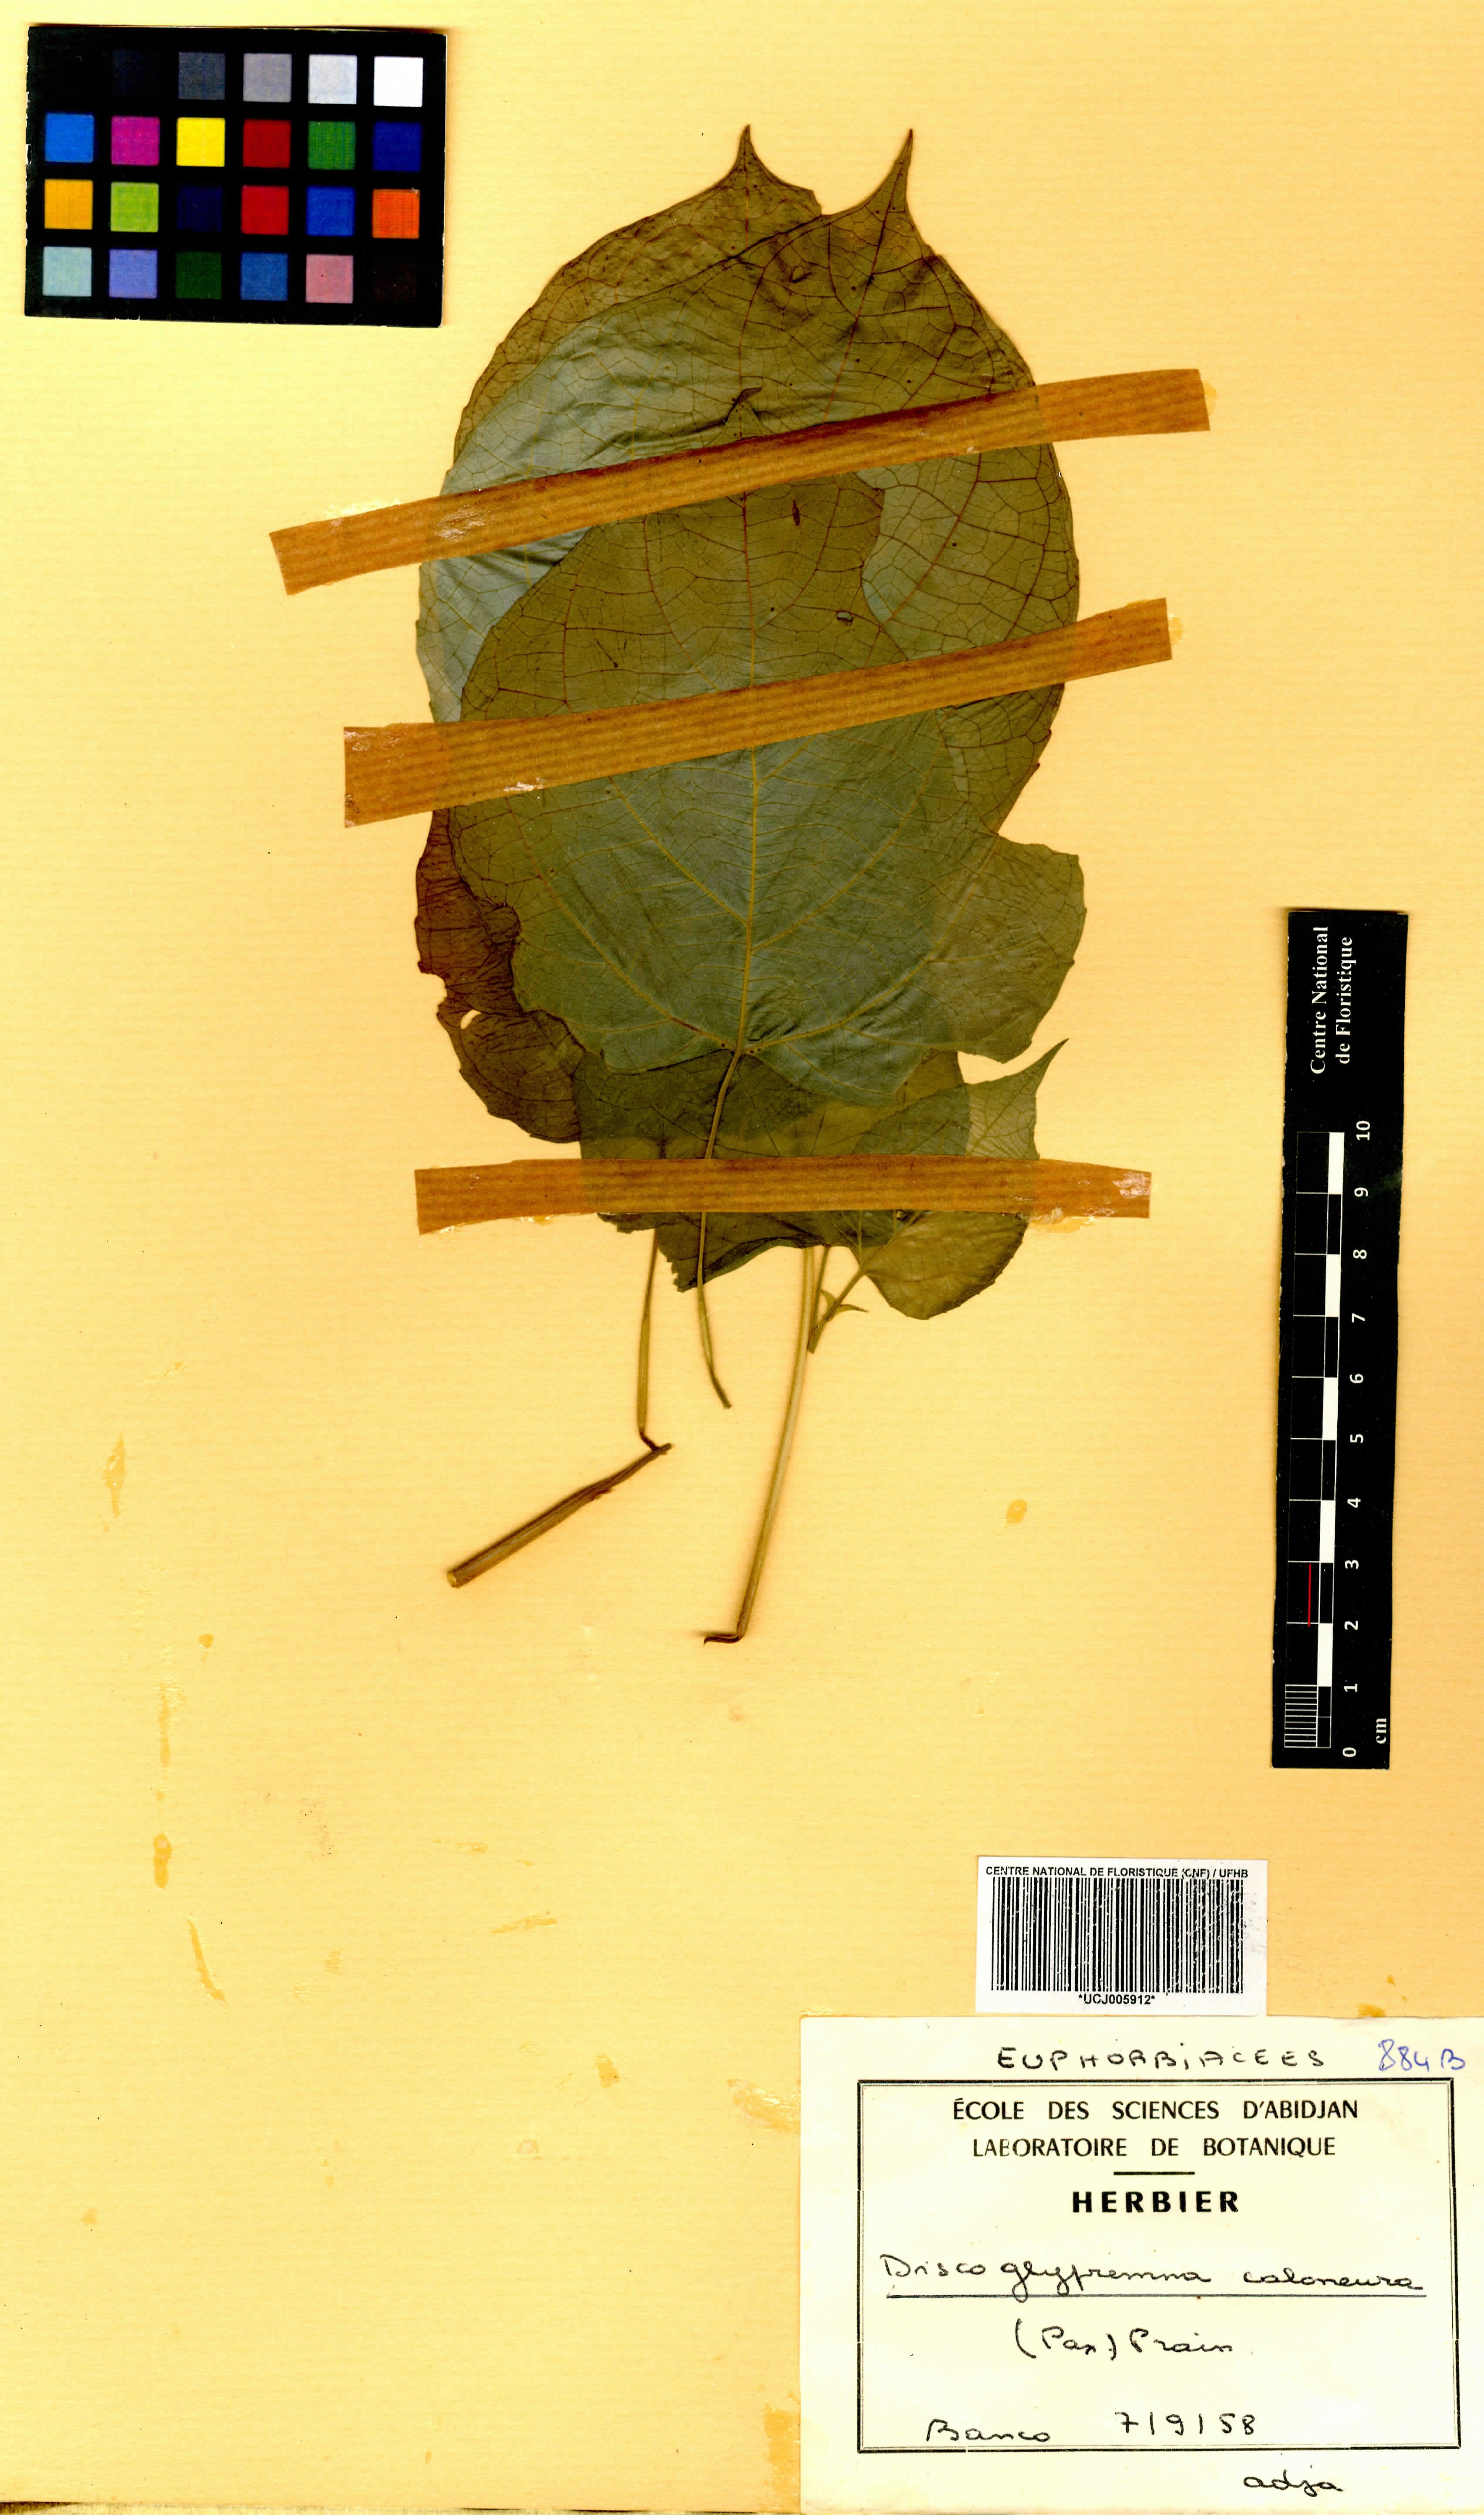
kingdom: Plantae
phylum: Tracheophyta
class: Magnoliopsida
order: Malpighiales
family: Euphorbiaceae
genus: Discoglypremna
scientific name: Discoglypremna caloneura
